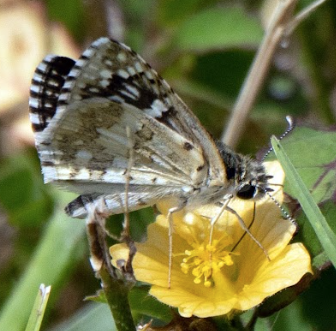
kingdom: Animalia
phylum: Arthropoda
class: Insecta
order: Lepidoptera
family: Hesperiidae
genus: Pyrgus
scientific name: Pyrgus communis
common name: White Checkered-Skipper
